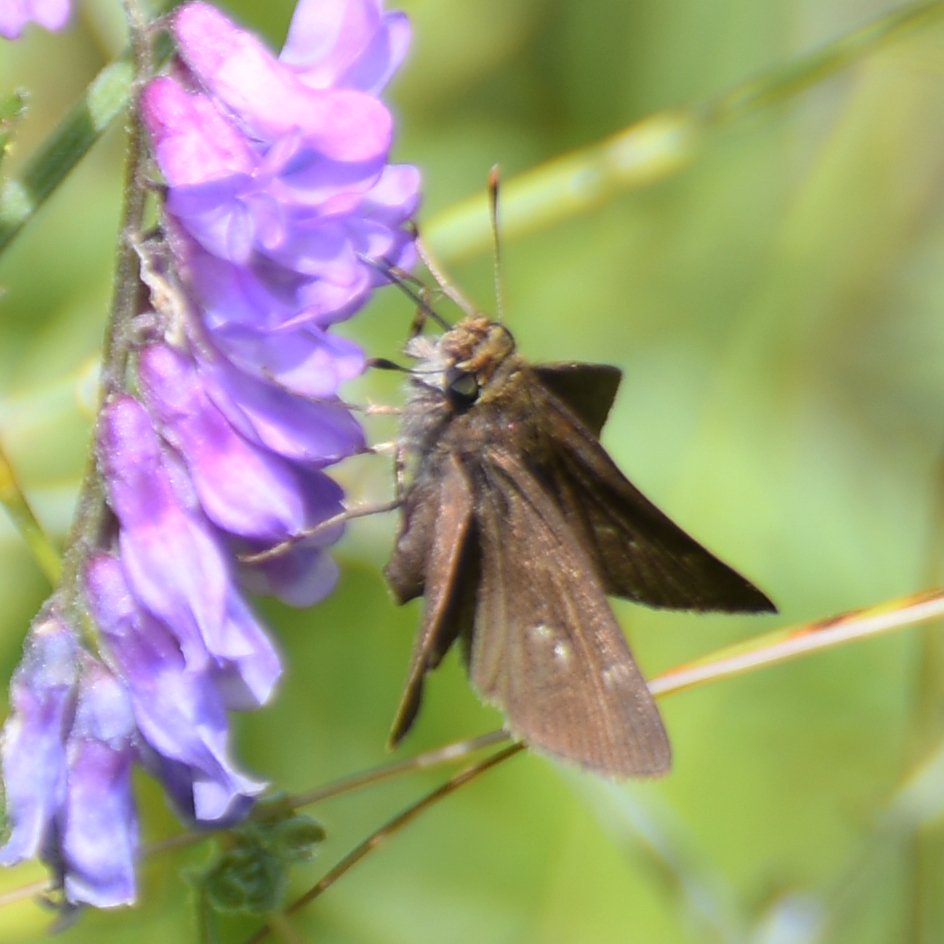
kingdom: Animalia
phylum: Arthropoda
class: Insecta
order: Lepidoptera
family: Hesperiidae
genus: Euphyes
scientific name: Euphyes vestris
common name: Dun Skipper
